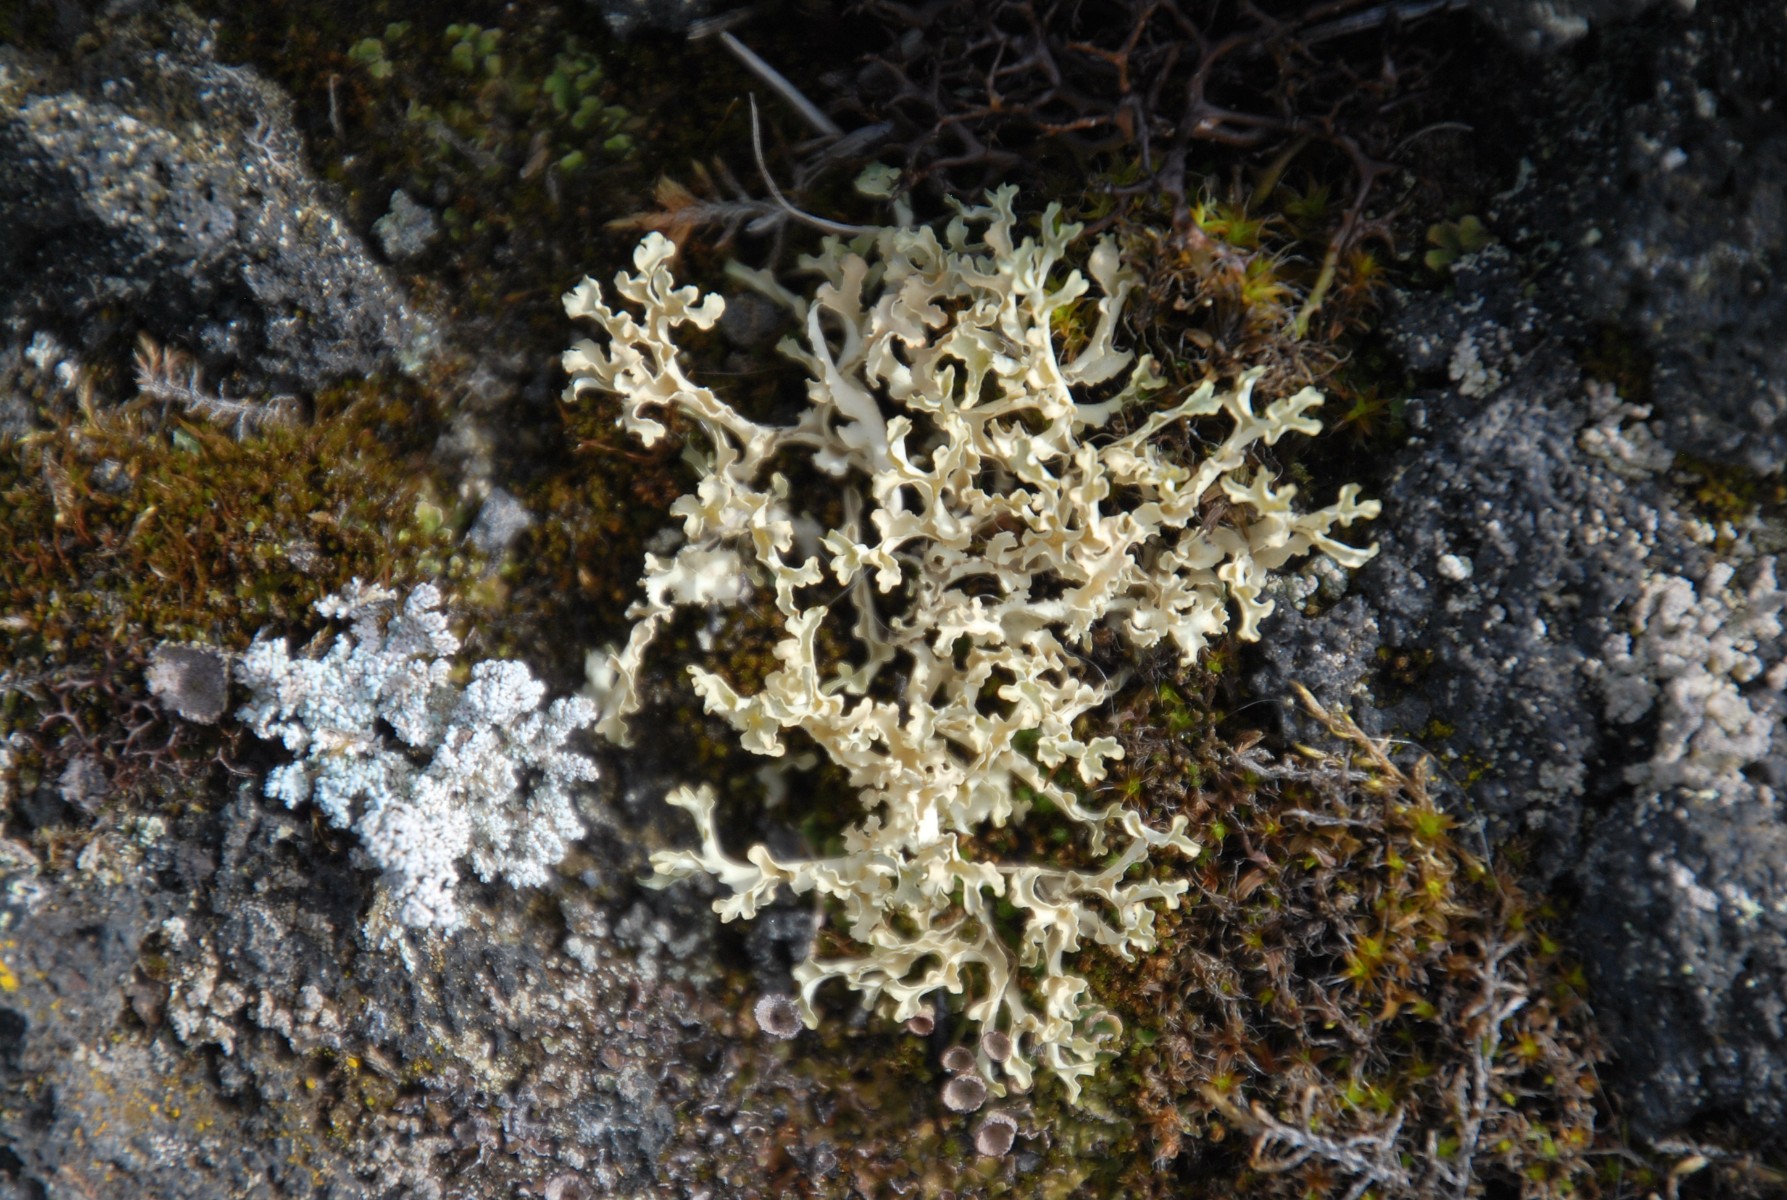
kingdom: Fungi
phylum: Ascomycota
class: Lecanoromycetes
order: Lecanorales
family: Parmeliaceae
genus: Nephromopsis
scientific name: Nephromopsis cucullata
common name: kræmmerhus-kruslav
